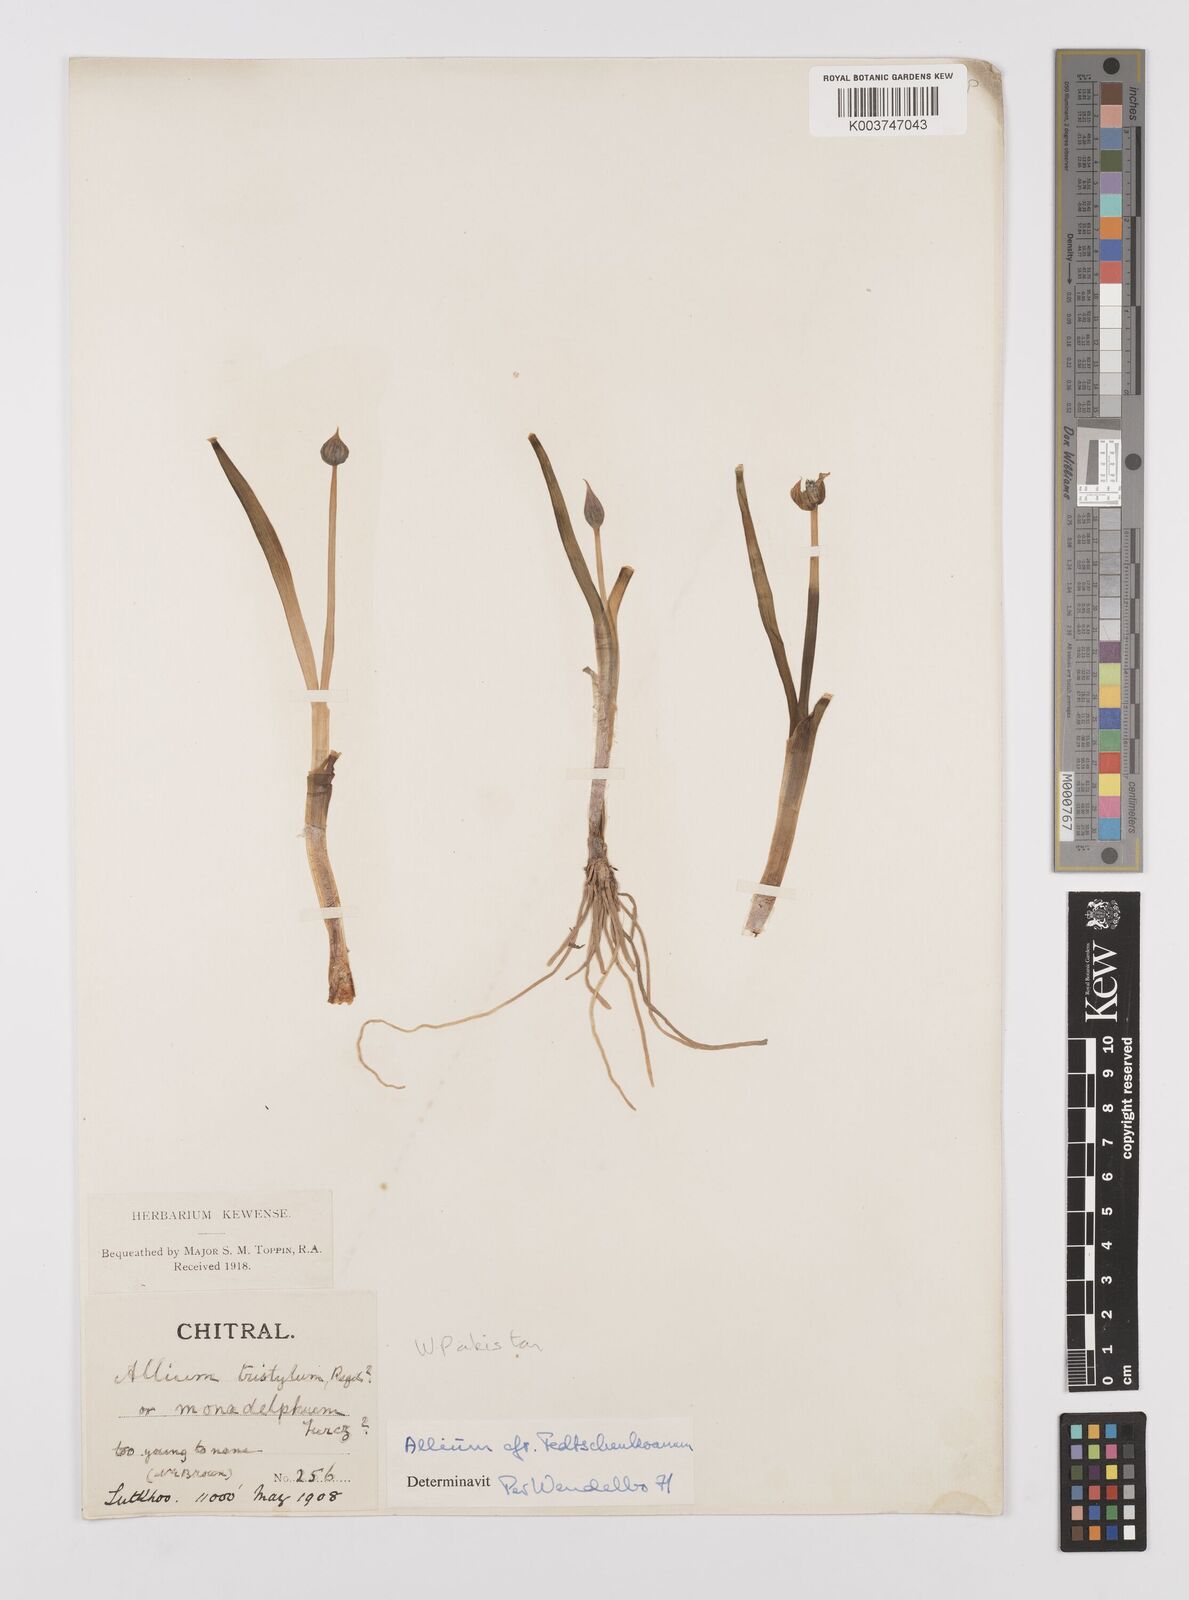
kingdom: Plantae
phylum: Tracheophyta
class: Liliopsida
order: Asparagales
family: Amaryllidaceae
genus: Allium
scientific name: Allium fedtschenkoi
